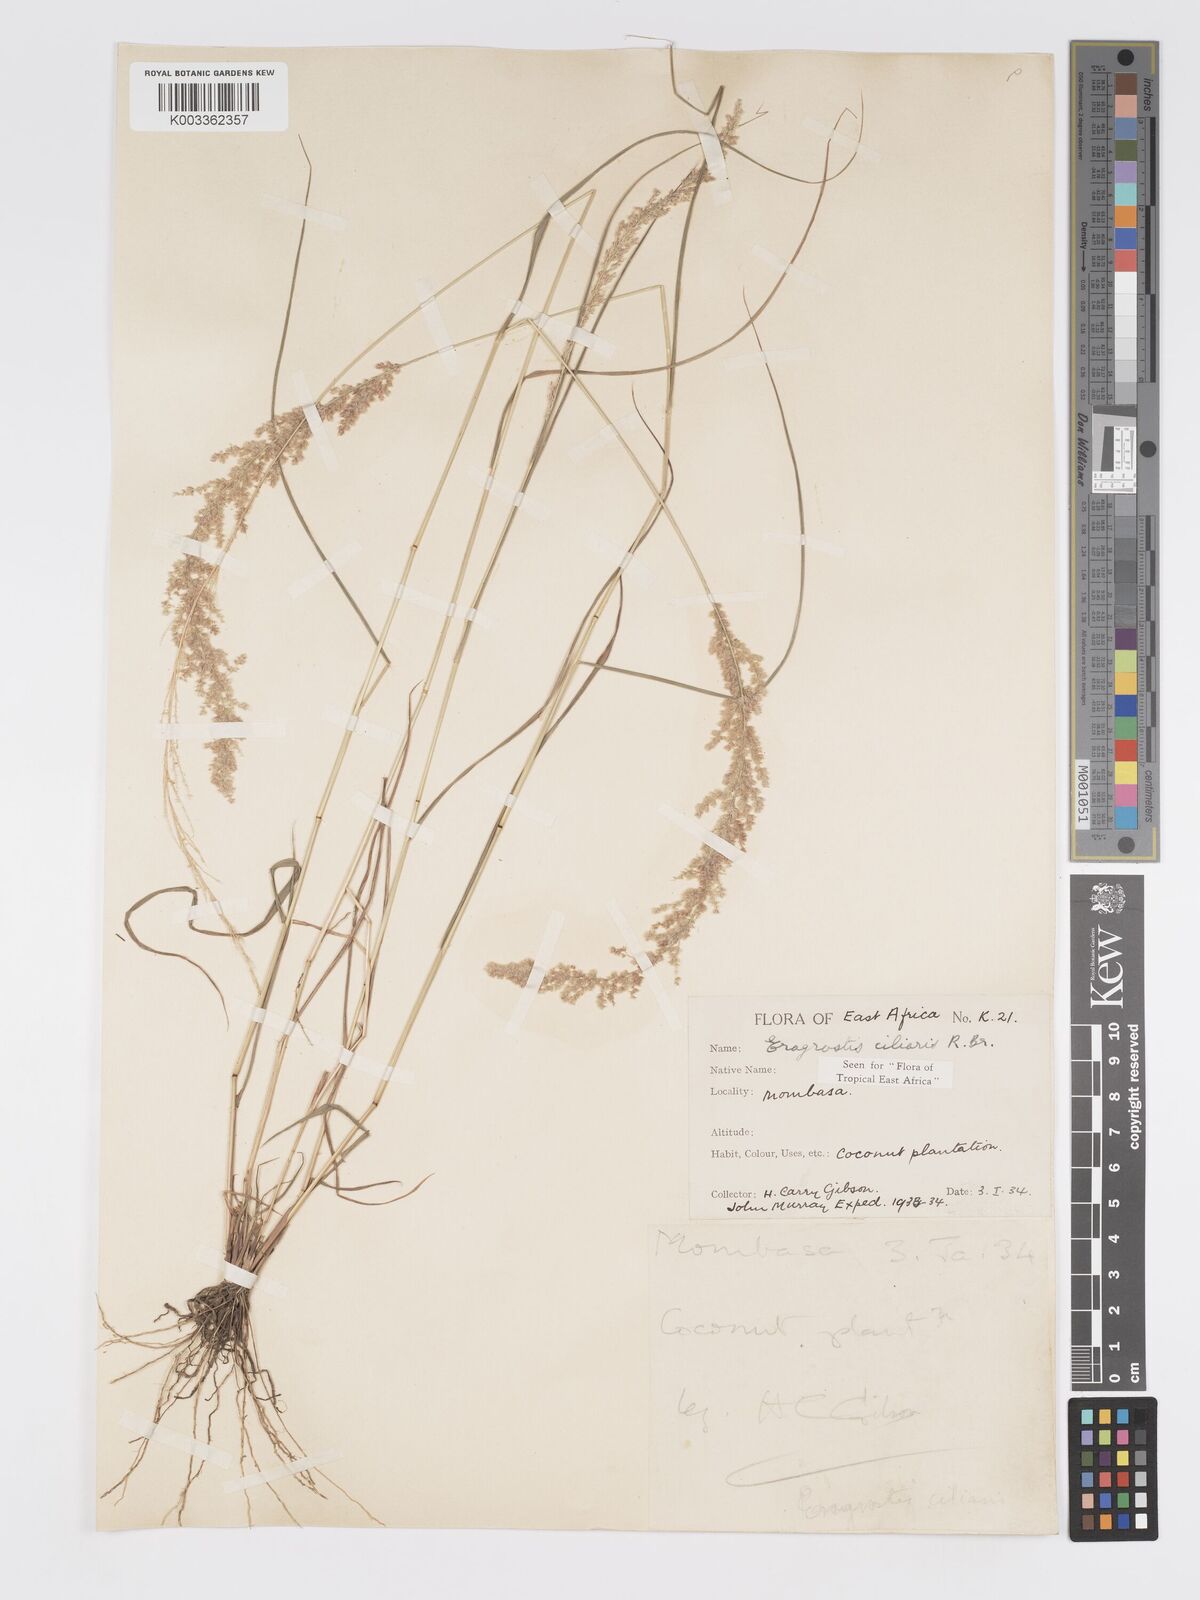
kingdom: Plantae
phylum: Tracheophyta
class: Liliopsida
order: Poales
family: Poaceae
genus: Eragrostis
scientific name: Eragrostis ciliaris
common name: Gophertail lovegrass
